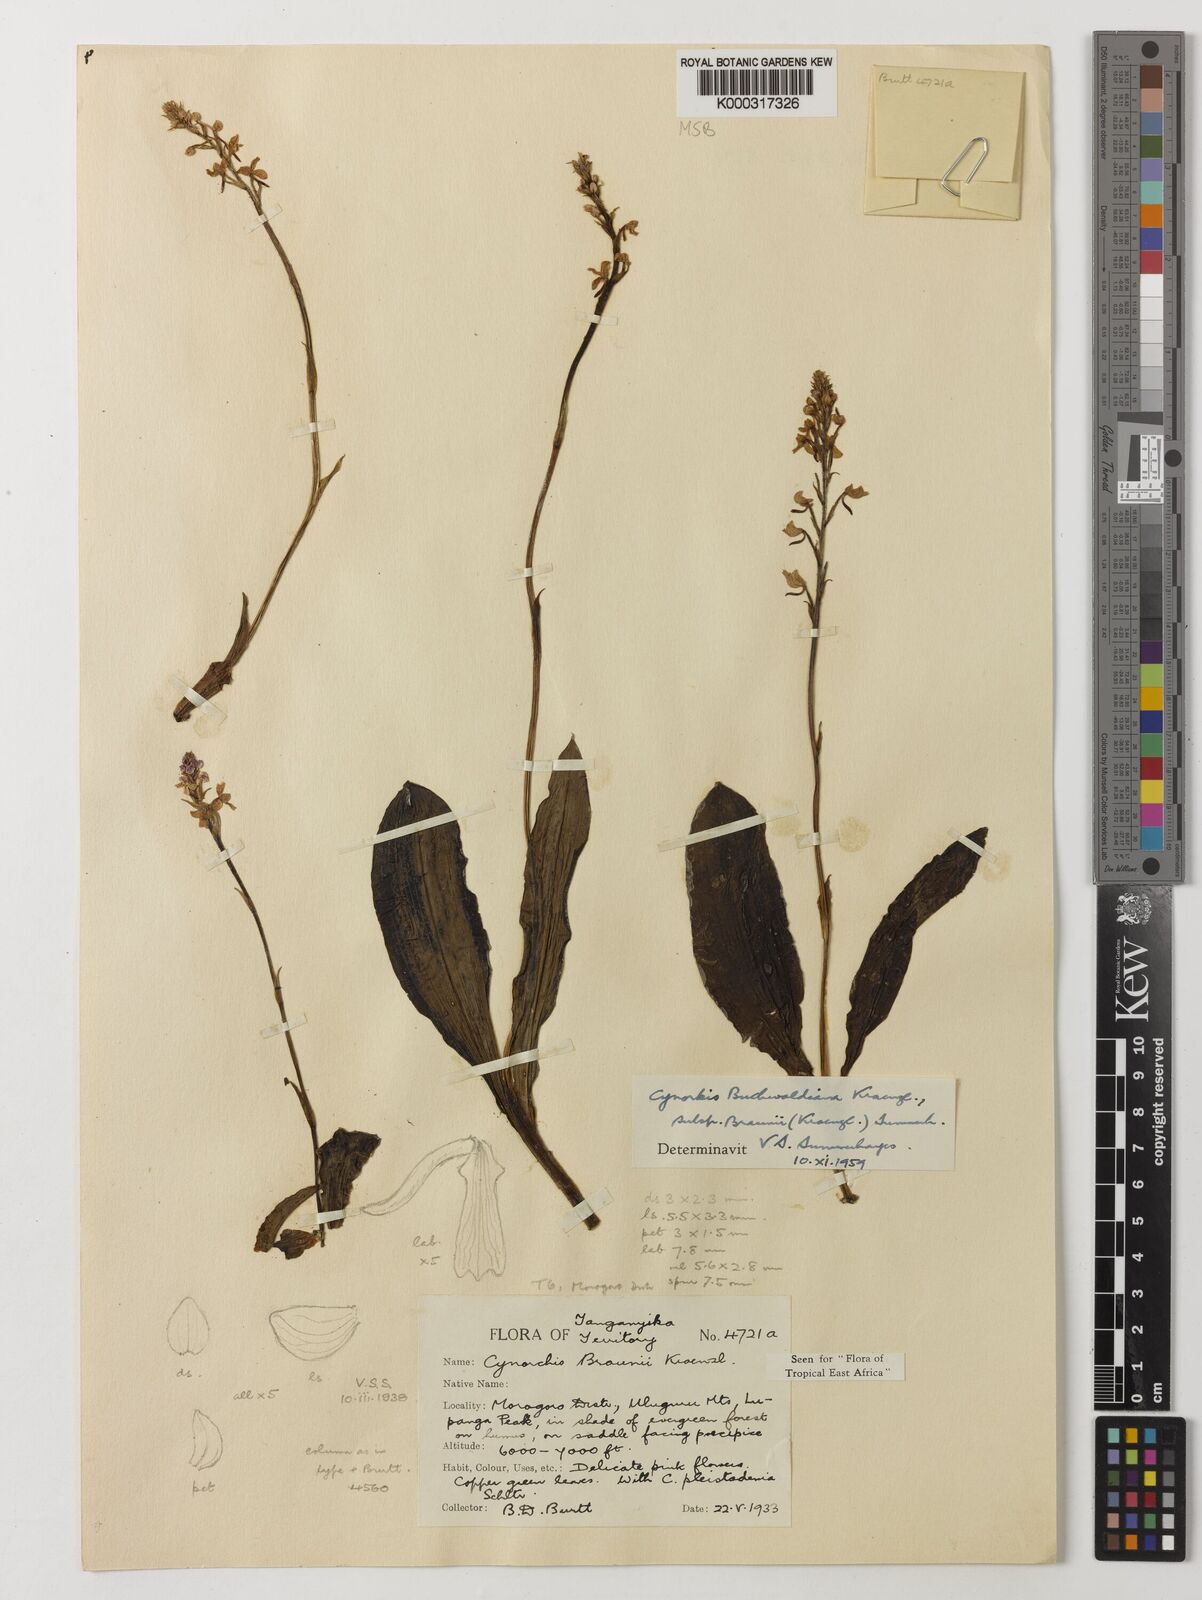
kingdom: Plantae
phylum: Tracheophyta
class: Liliopsida
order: Asparagales
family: Orchidaceae
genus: Cynorkis
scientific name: Cynorkis buchwaldiana
